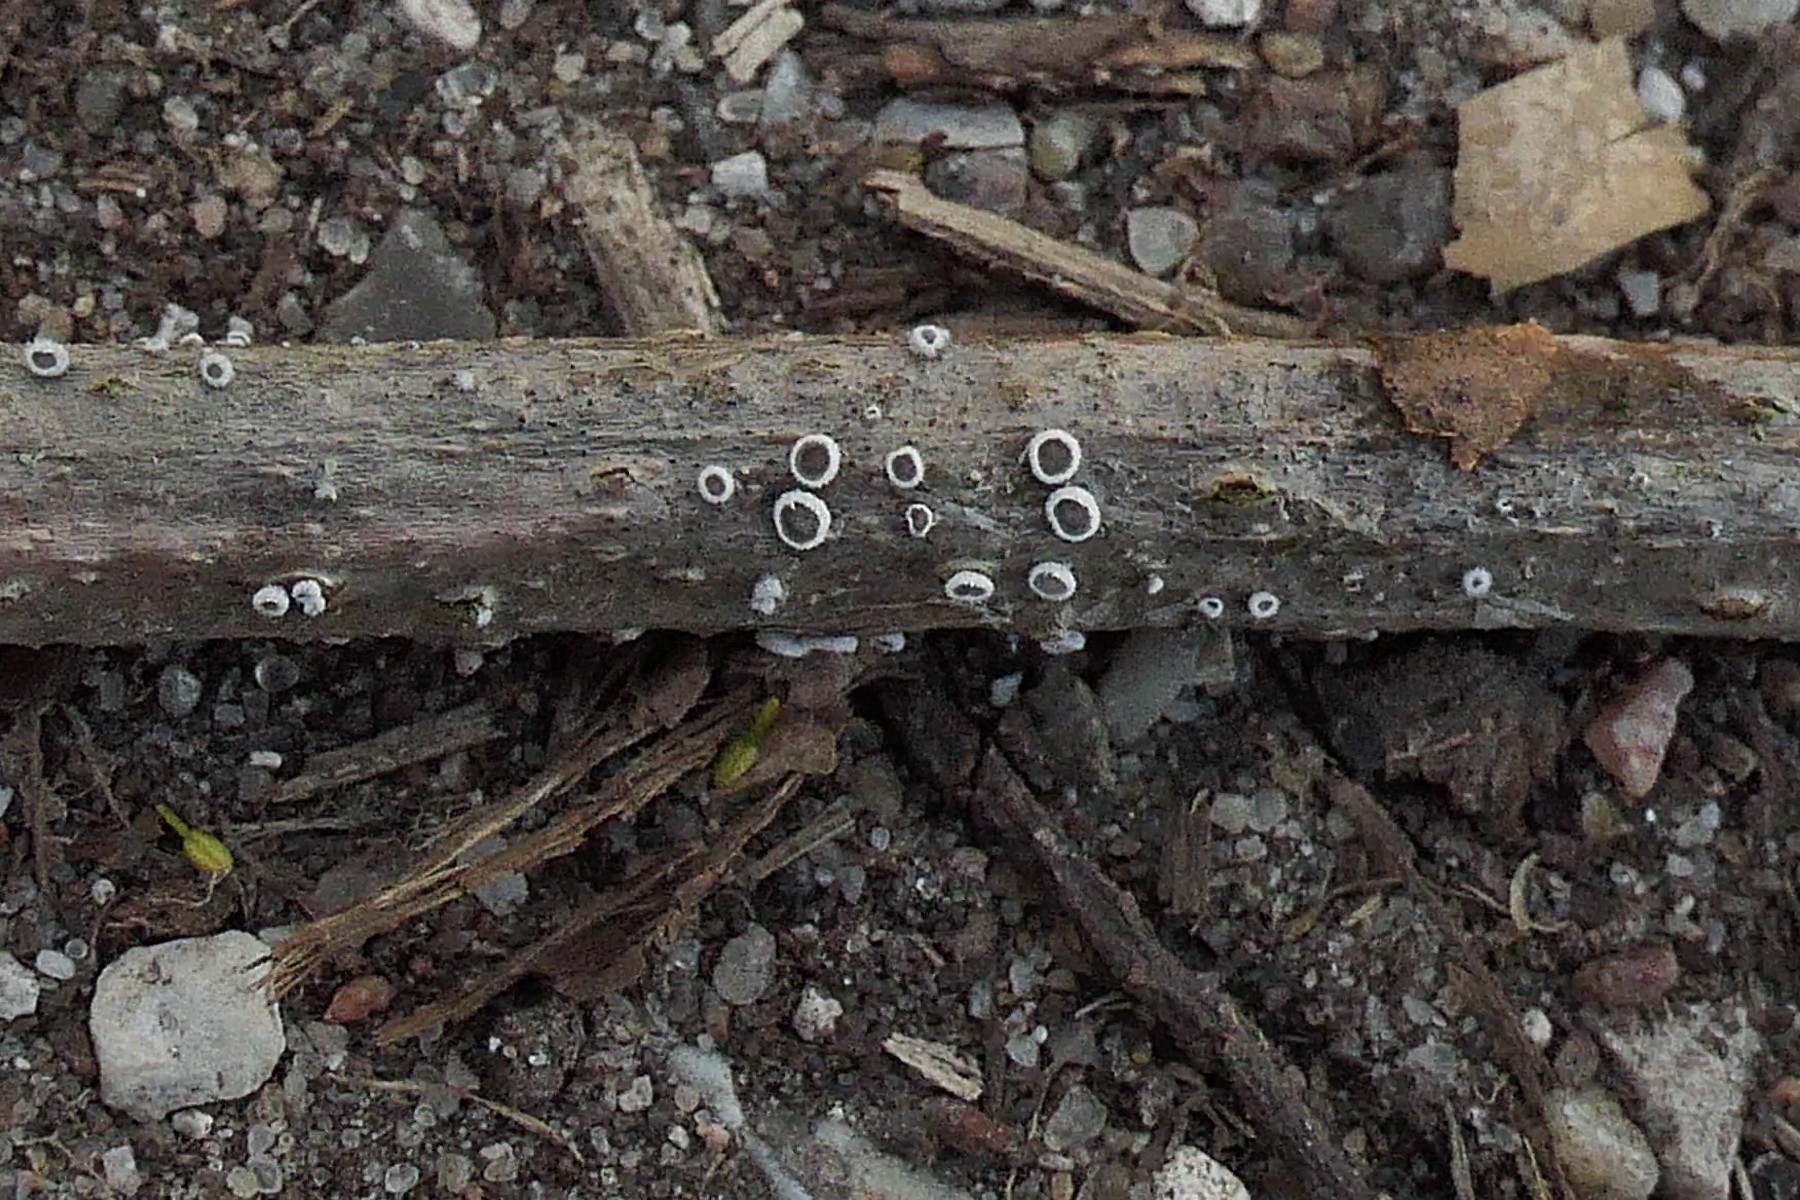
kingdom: Fungi
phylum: Basidiomycota
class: Agaricomycetes
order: Agaricales
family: Niaceae
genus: Lachnella
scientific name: Lachnella alboviolascens
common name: grå frynserede
